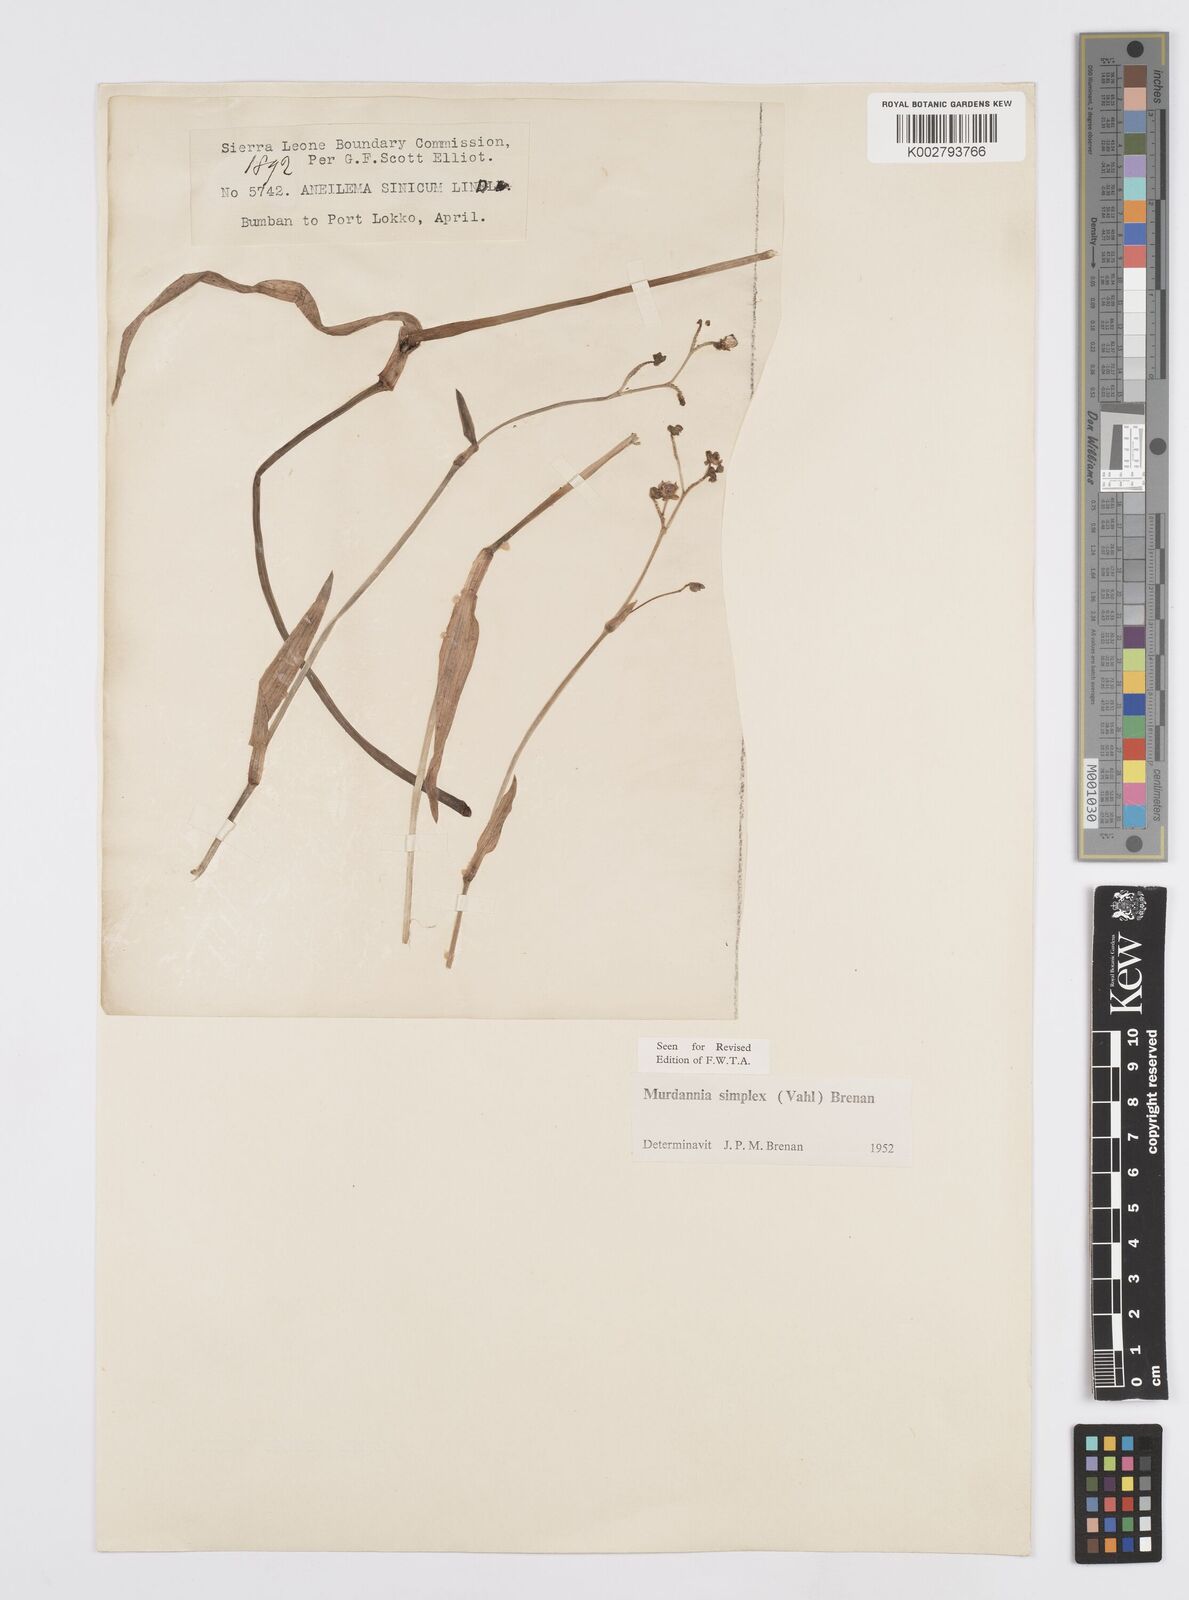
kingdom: Plantae
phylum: Tracheophyta
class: Liliopsida
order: Commelinales
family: Commelinaceae
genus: Murdannia
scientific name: Murdannia simplex
